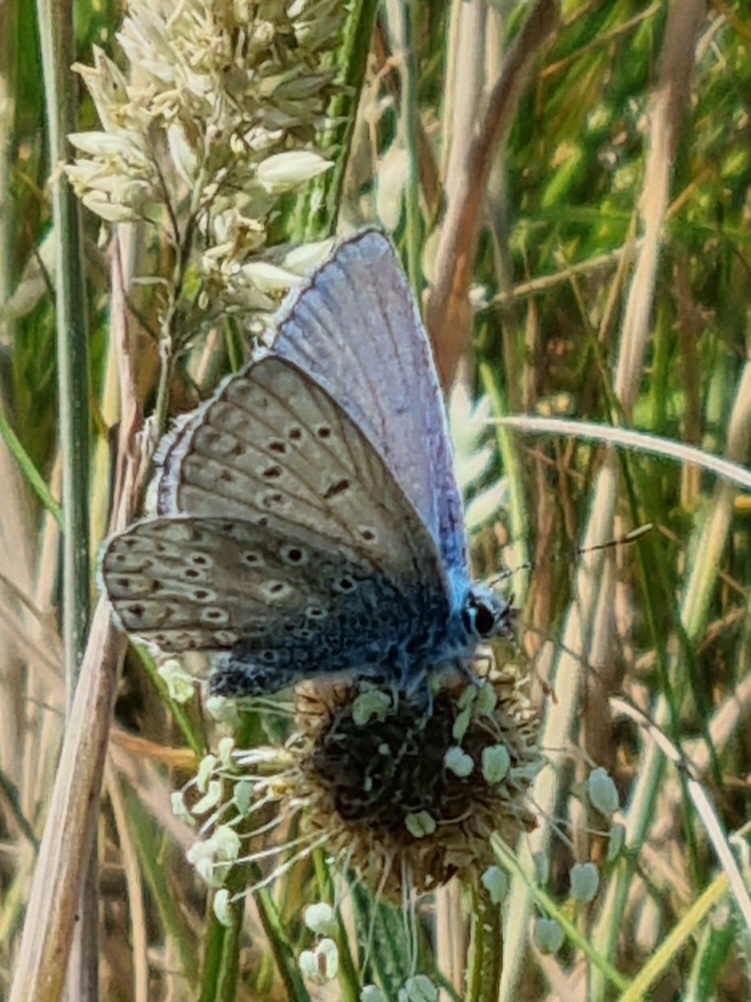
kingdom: Animalia
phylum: Arthropoda
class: Insecta
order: Lepidoptera
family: Lycaenidae
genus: Polyommatus
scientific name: Polyommatus icarus
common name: Almindelig blåfugl
